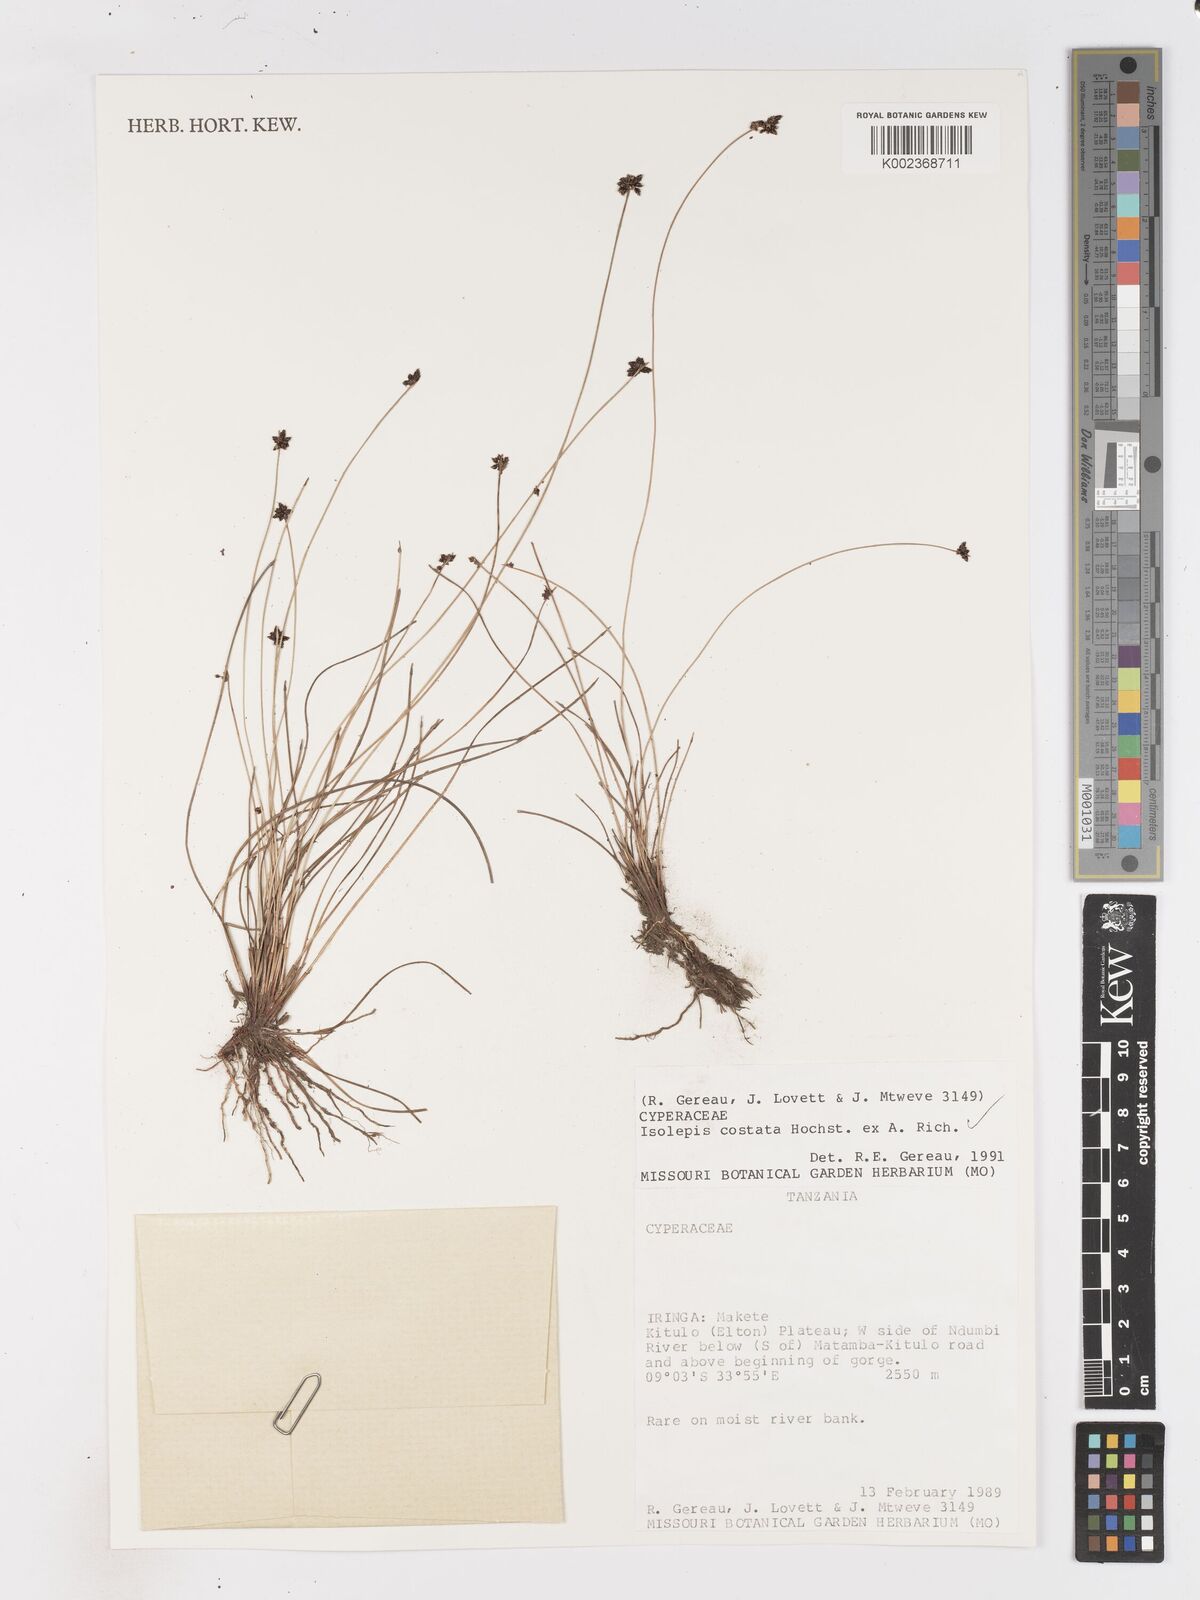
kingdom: Plantae
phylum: Tracheophyta
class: Liliopsida
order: Poales
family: Cyperaceae
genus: Isolepis
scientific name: Isolepis costata
